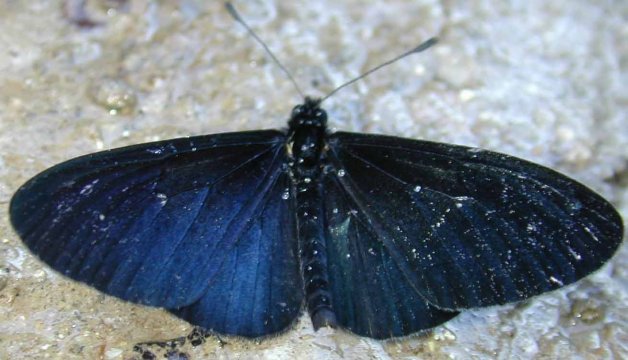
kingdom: Animalia
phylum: Arthropoda
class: Insecta
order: Lepidoptera
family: Nymphalidae
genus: Acraea
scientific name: Acraea Altinote ozomene
